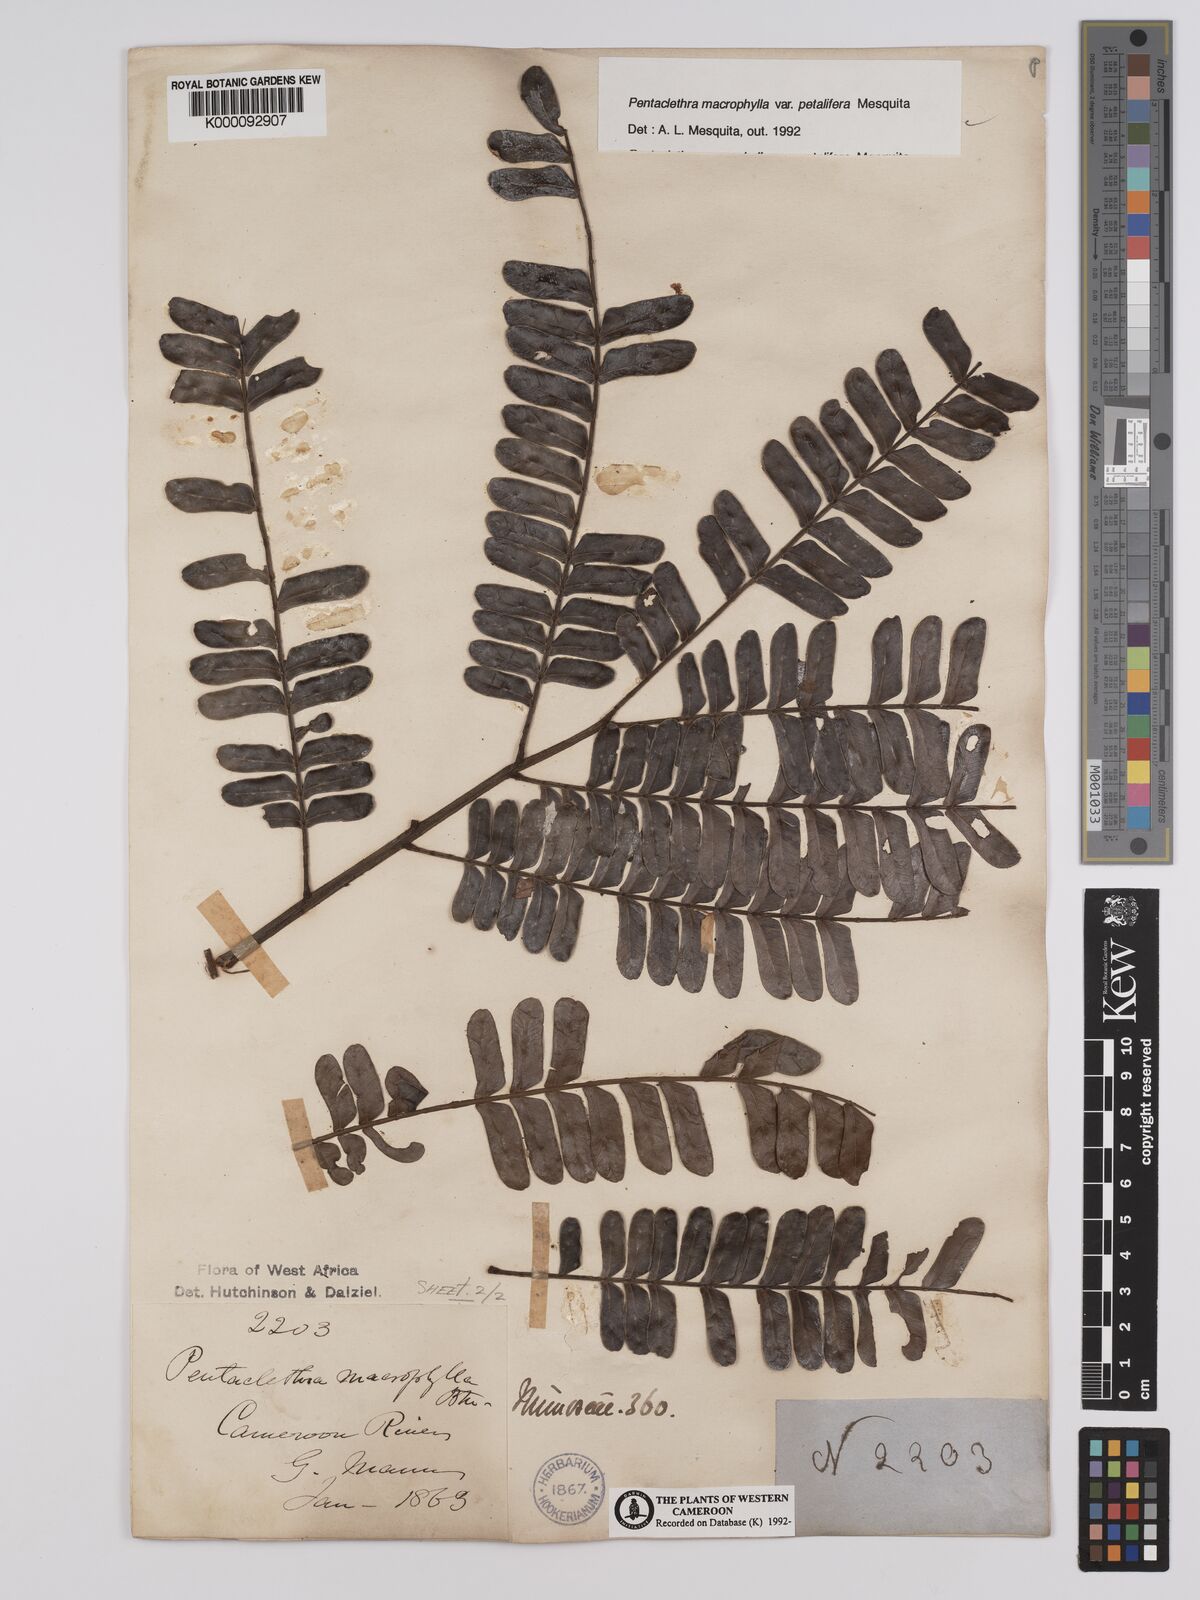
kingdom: Plantae
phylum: Tracheophyta
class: Magnoliopsida
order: Fabales
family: Fabaceae
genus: Pentaclethra
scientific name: Pentaclethra macrophylla
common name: African oil bean
